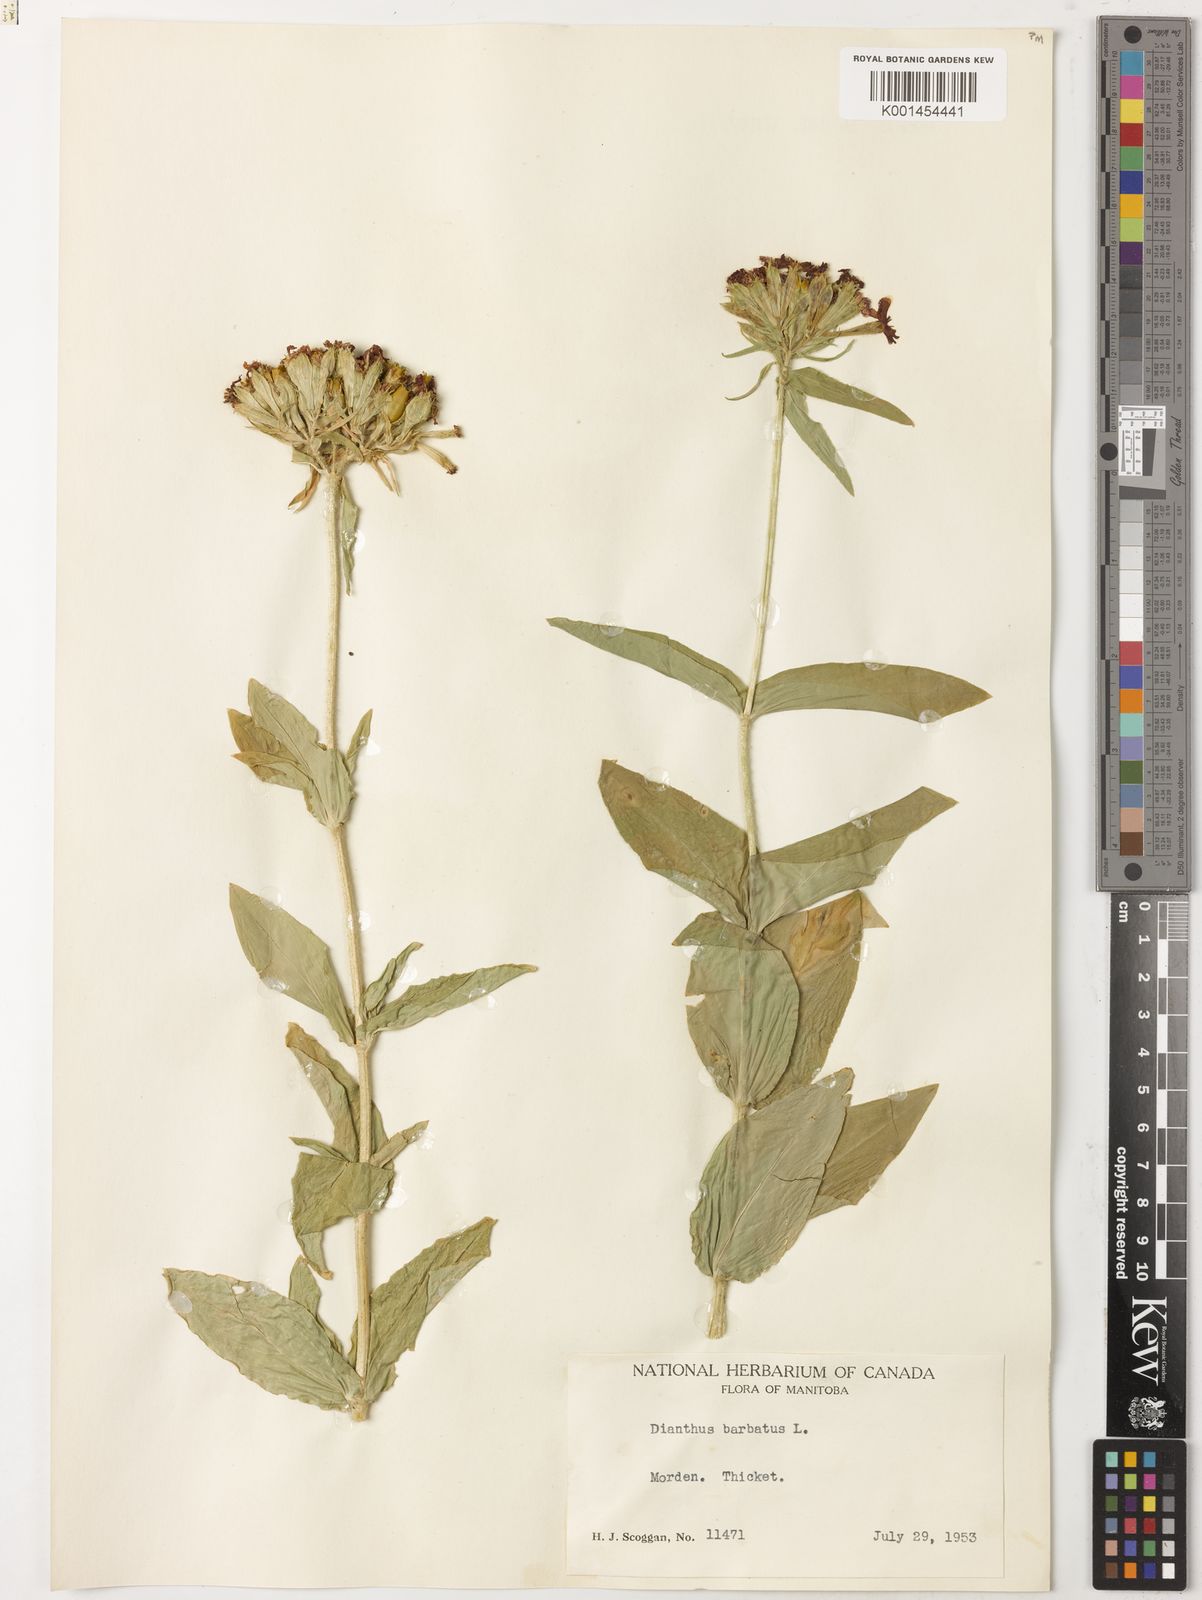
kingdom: Plantae
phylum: Tracheophyta
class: Magnoliopsida
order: Caryophyllales
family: Caryophyllaceae
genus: Dianthus
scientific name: Dianthus barbatus
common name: Sweet-william
